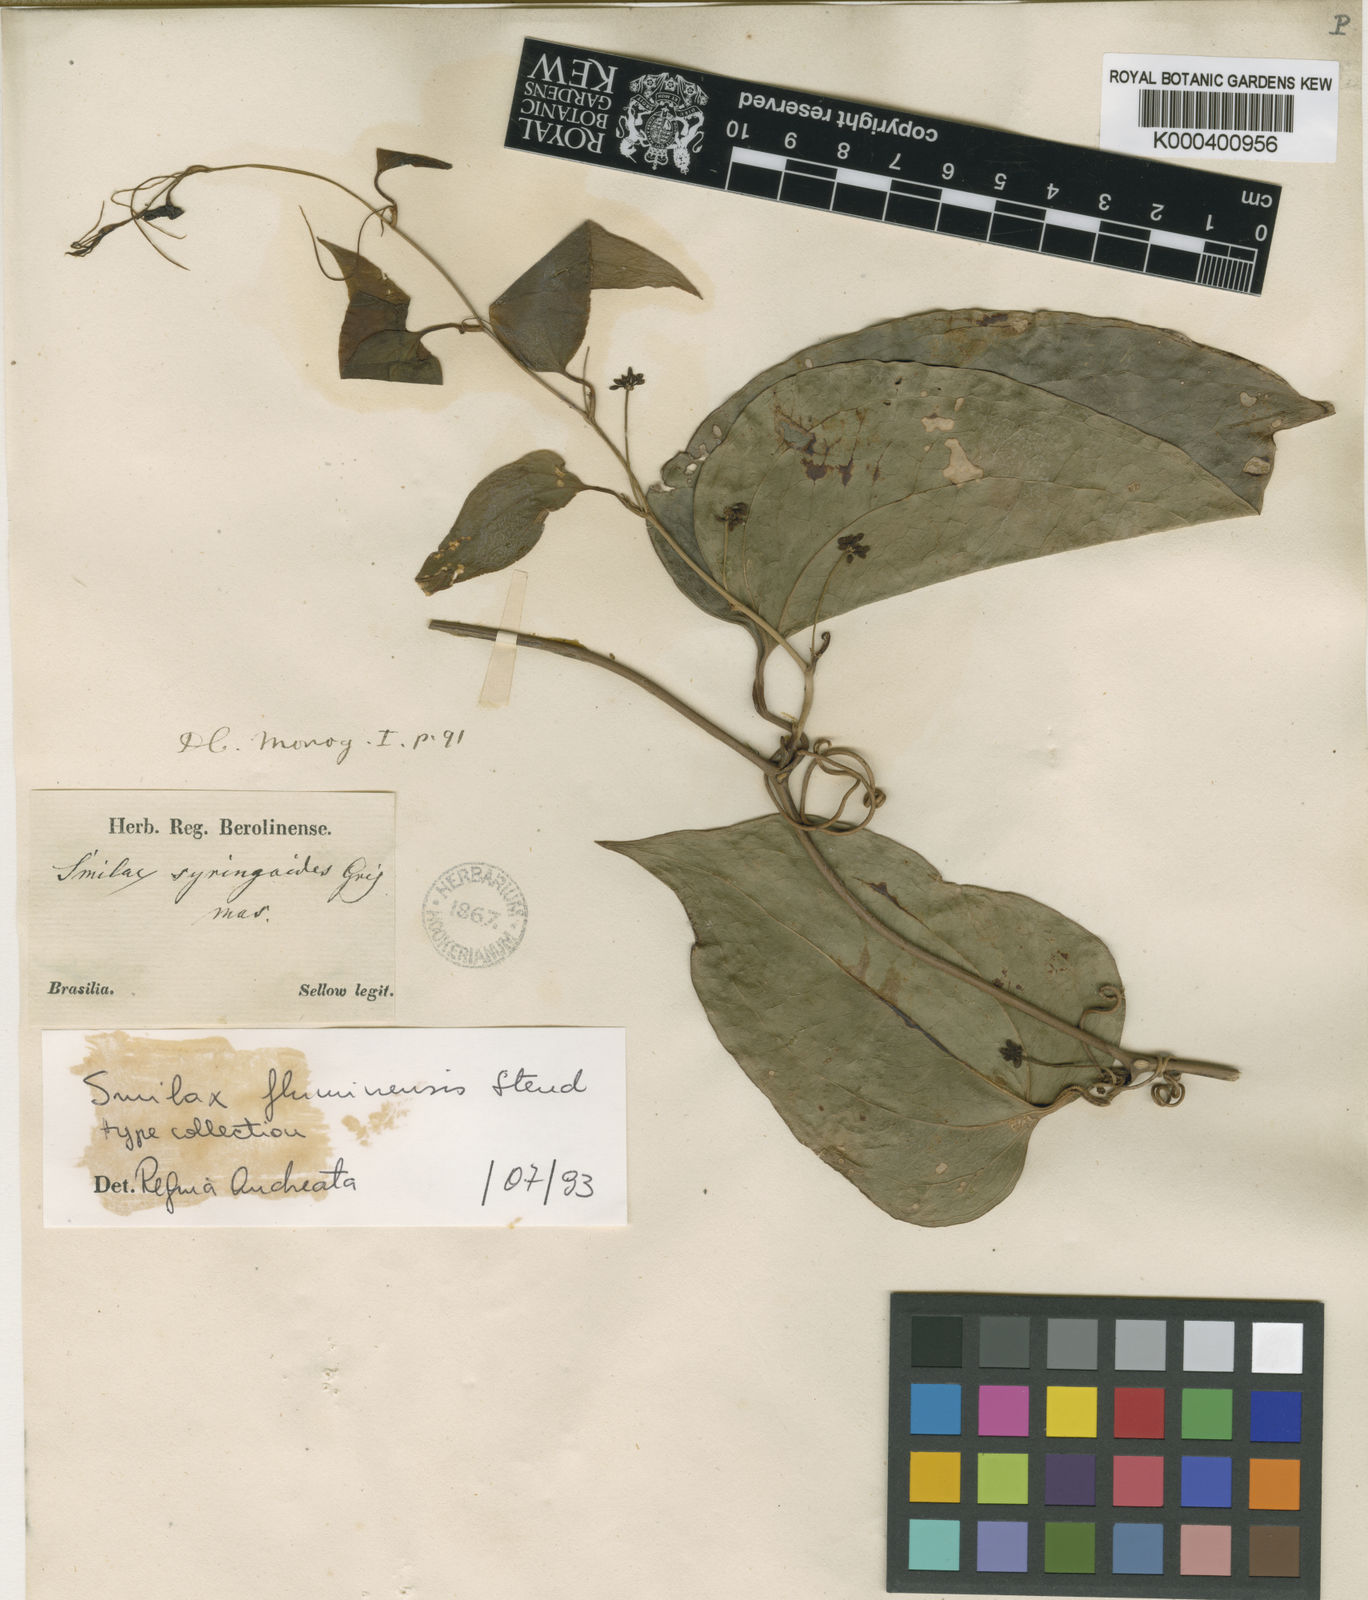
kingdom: Plantae
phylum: Tracheophyta
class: Liliopsida
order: Liliales
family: Smilacaceae
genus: Smilax
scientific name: Smilax fluminensis
